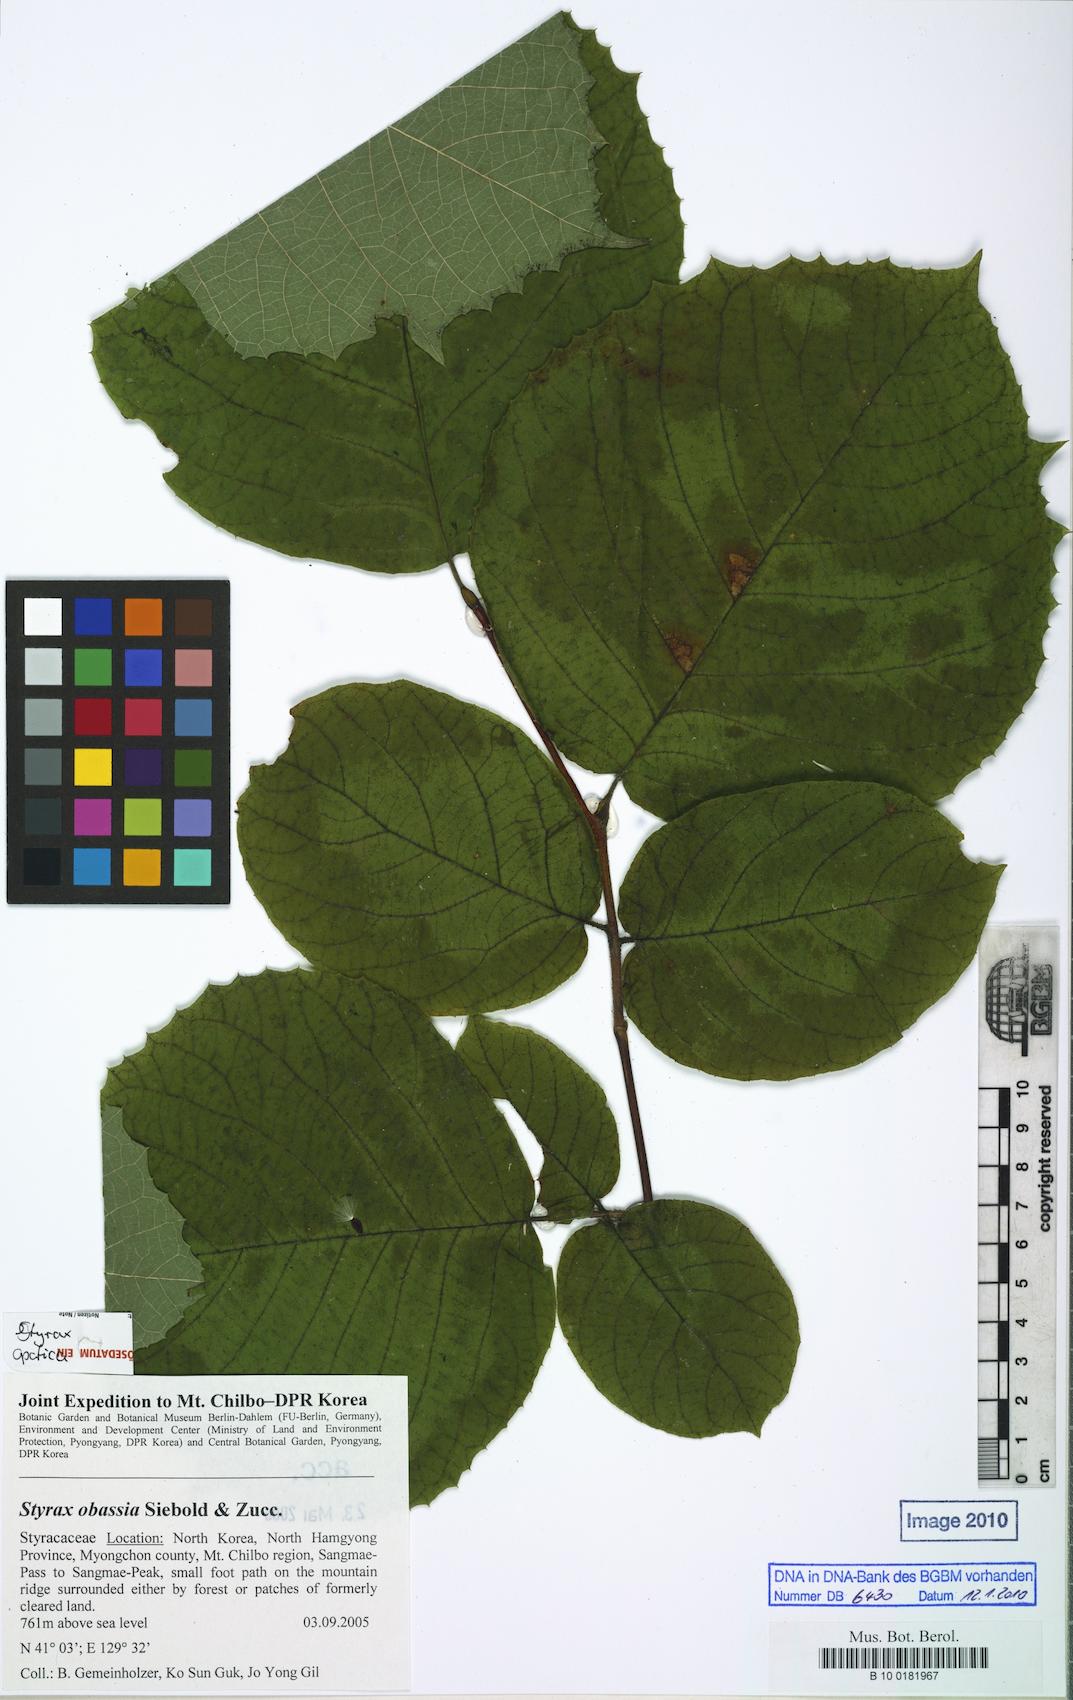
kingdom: Plantae
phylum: Tracheophyta
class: Magnoliopsida
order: Ericales
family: Styracaceae
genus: Styrax
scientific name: Styrax obassia
